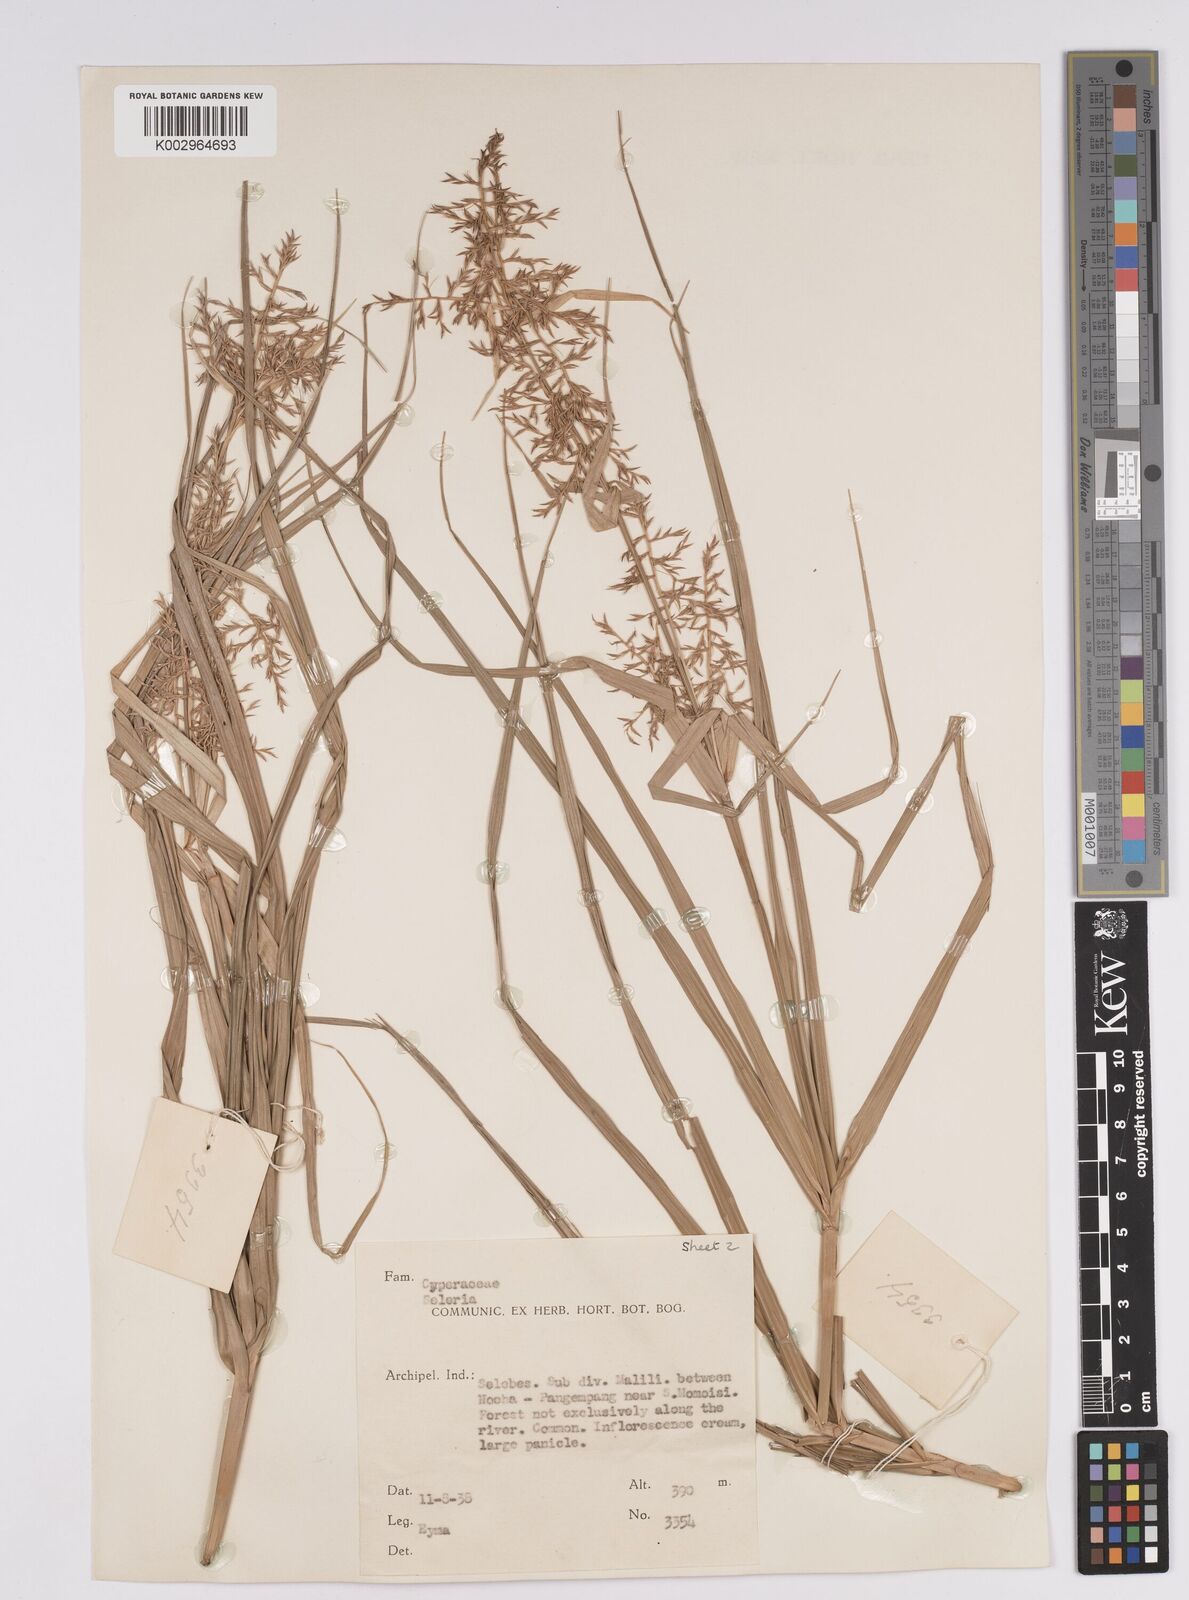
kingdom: Plantae
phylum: Tracheophyta
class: Liliopsida
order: Poales
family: Cyperaceae
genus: Scleria
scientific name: Scleria
